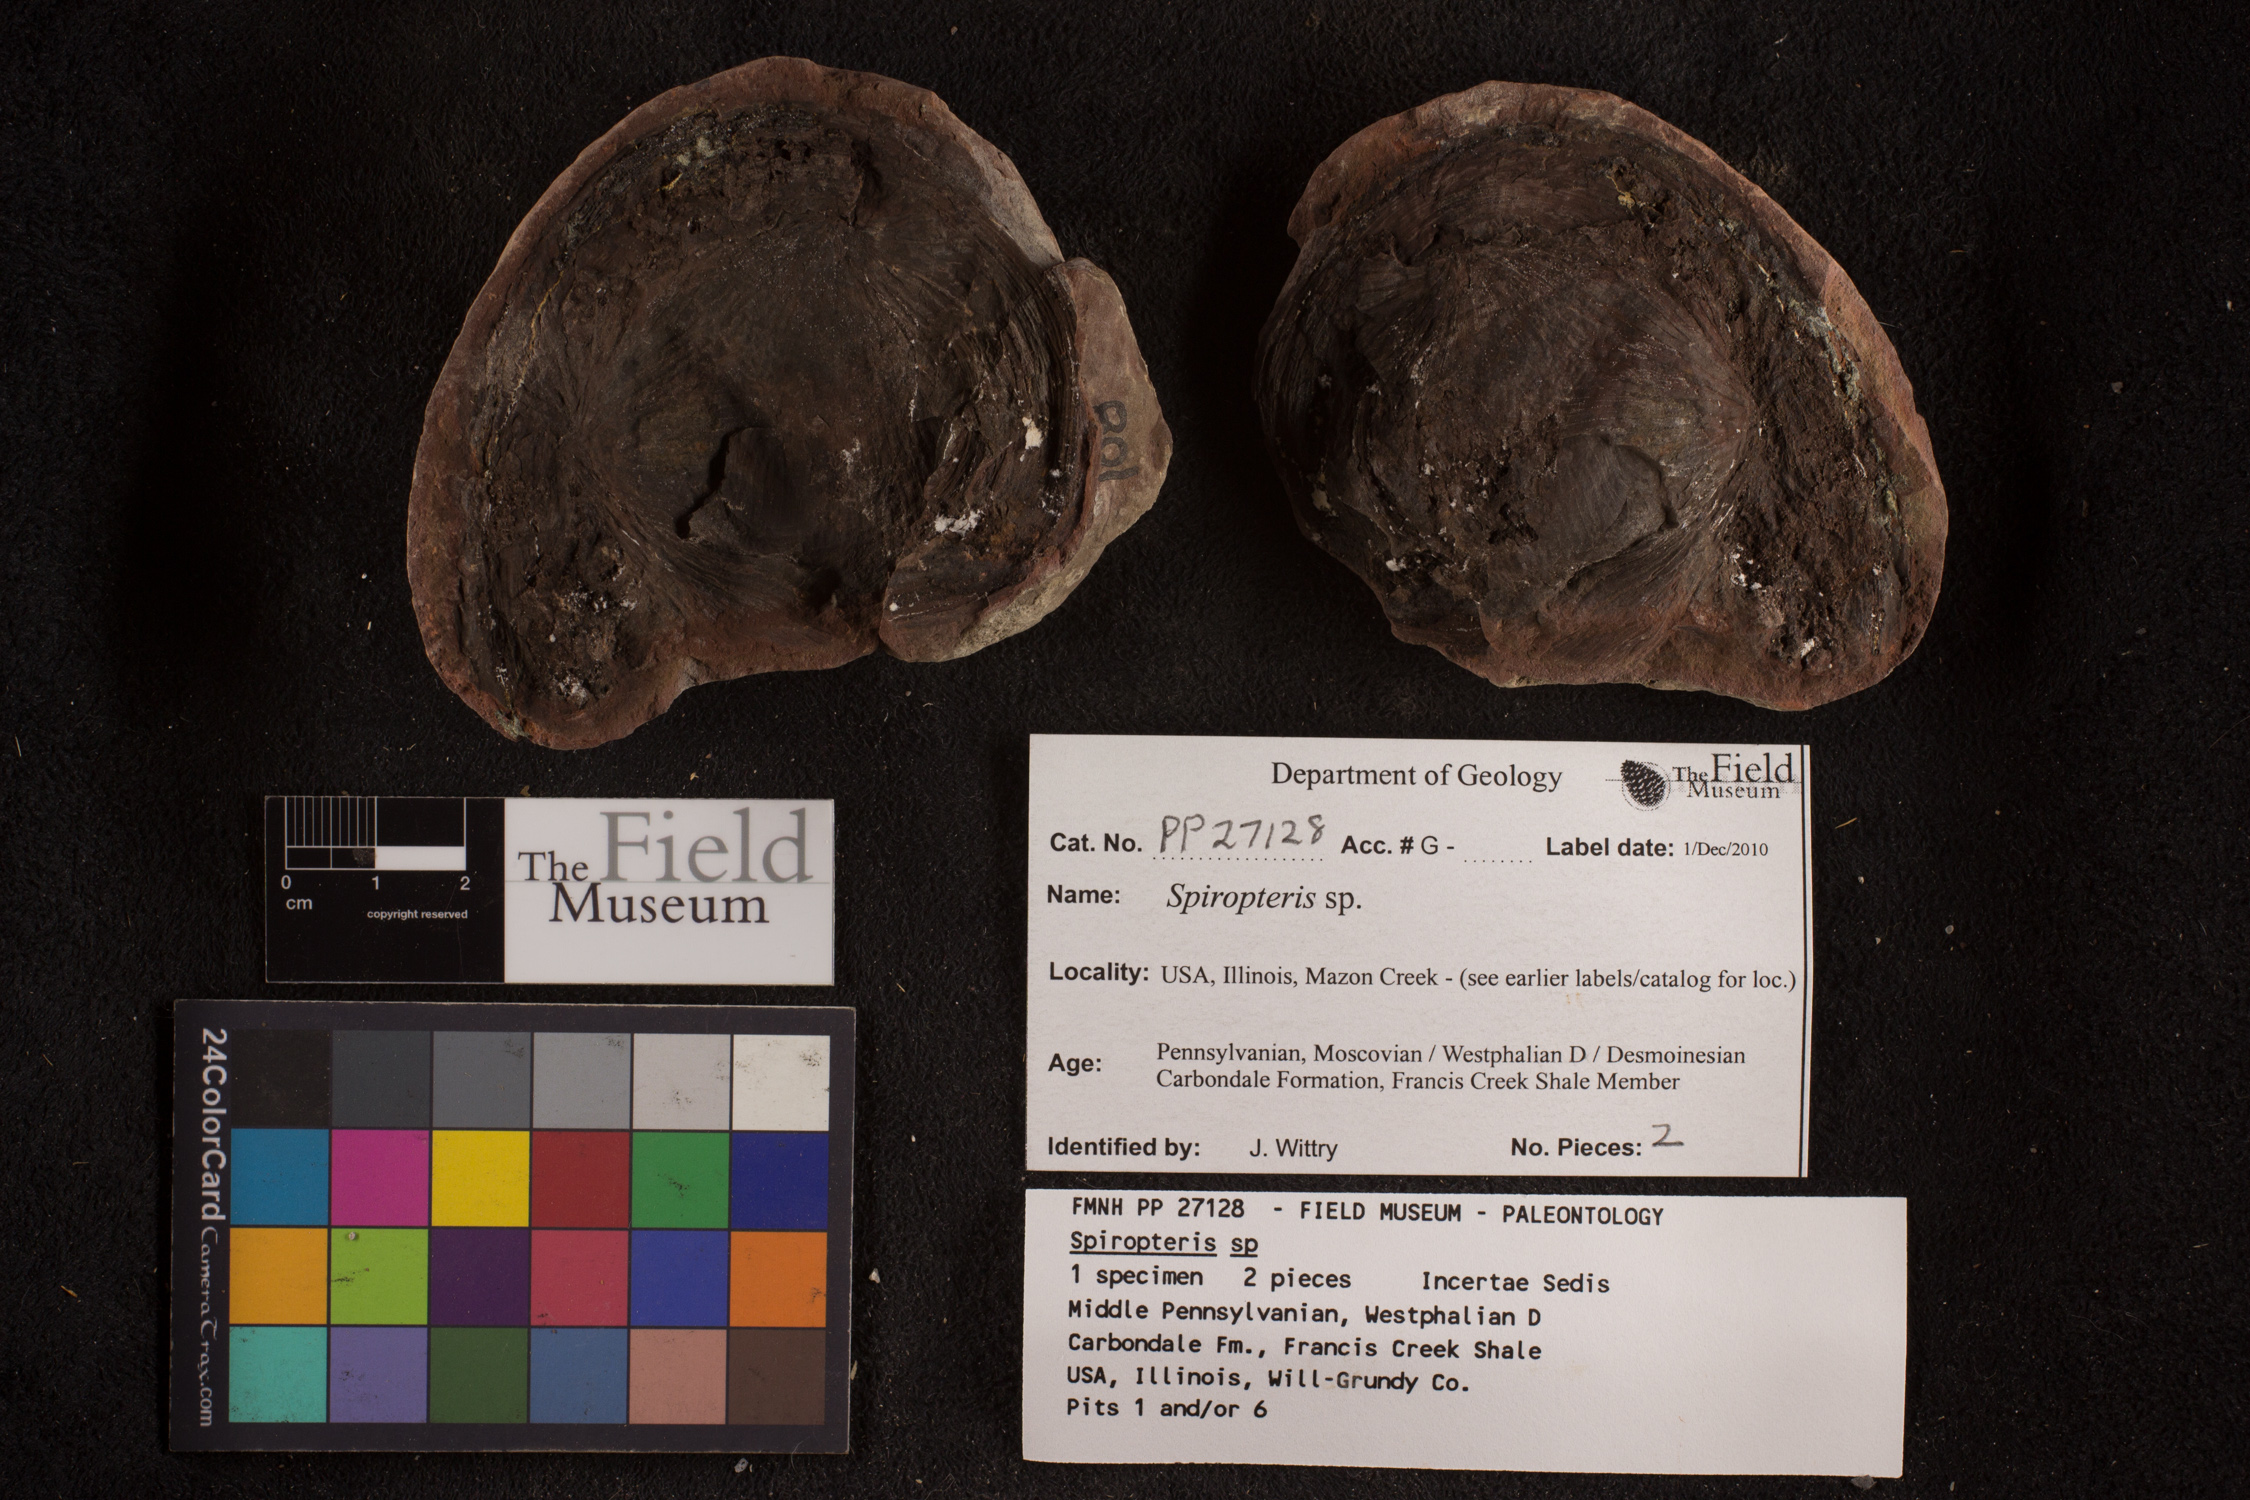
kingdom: Plantae
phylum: Tracheophyta
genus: Spiropteris
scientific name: Spiropteris
